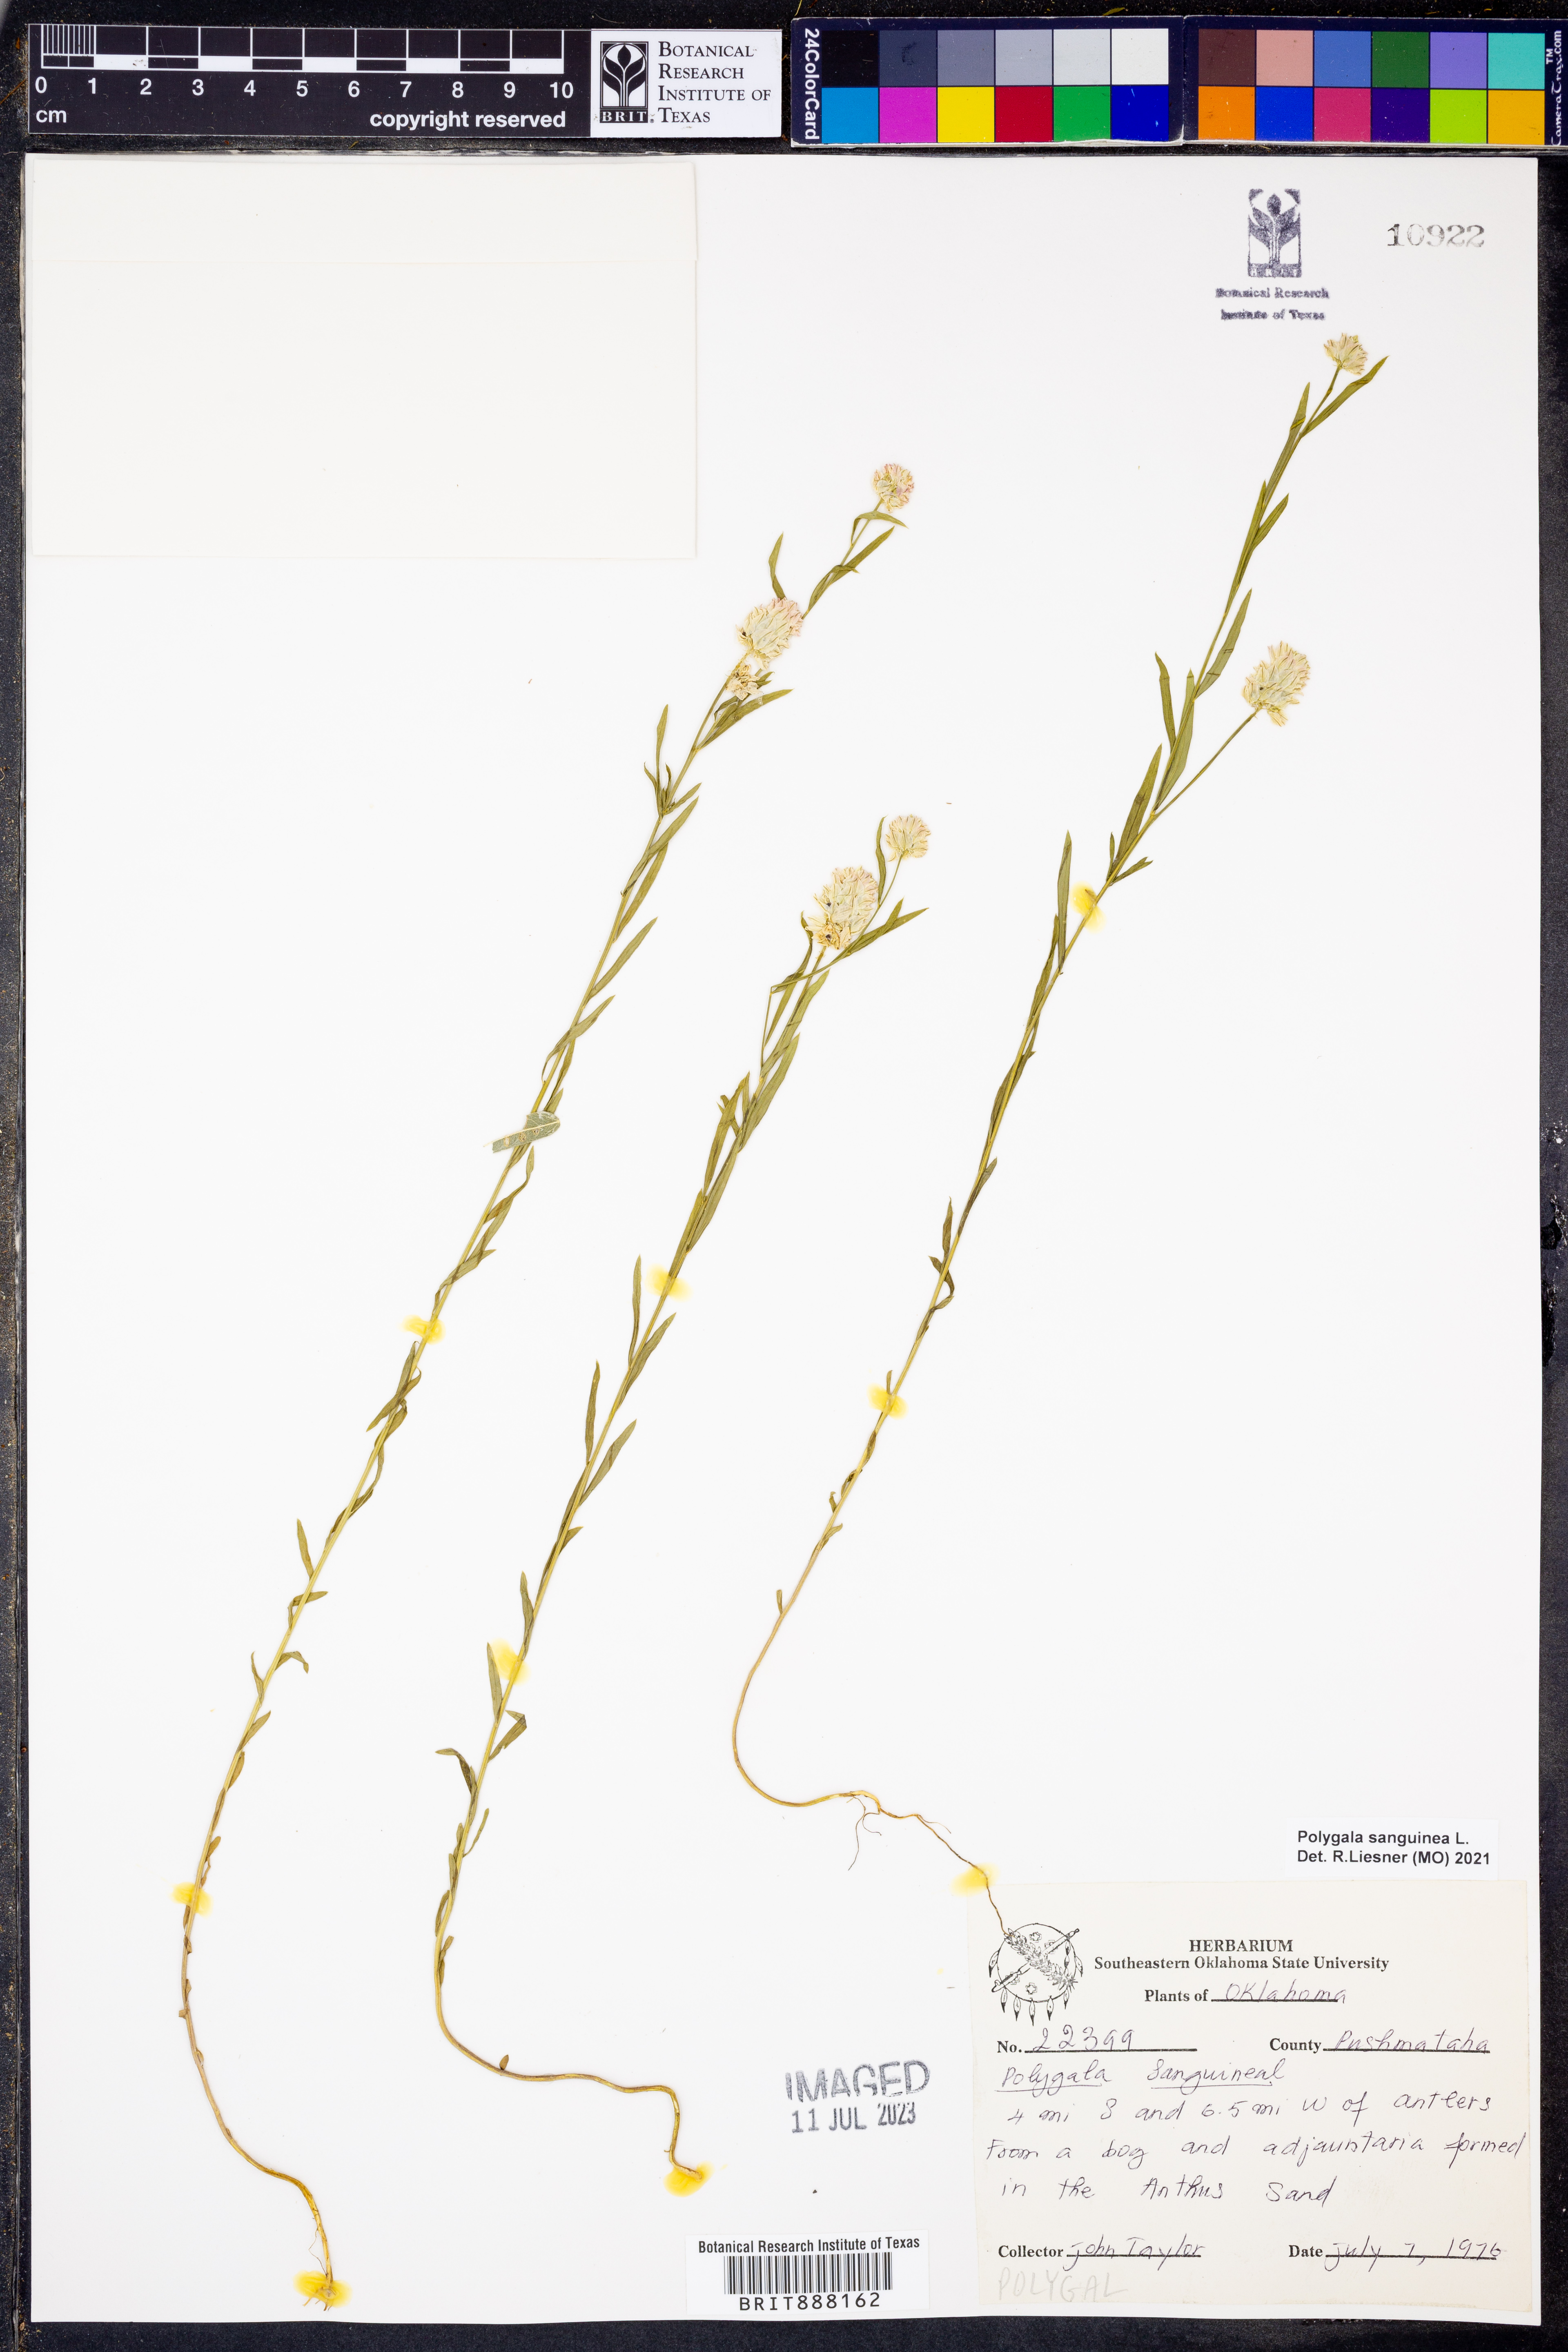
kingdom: Plantae
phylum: Tracheophyta
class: Magnoliopsida
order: Fabales
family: Polygalaceae
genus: Polygala
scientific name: Polygala sanguinea
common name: Blood milkwort
